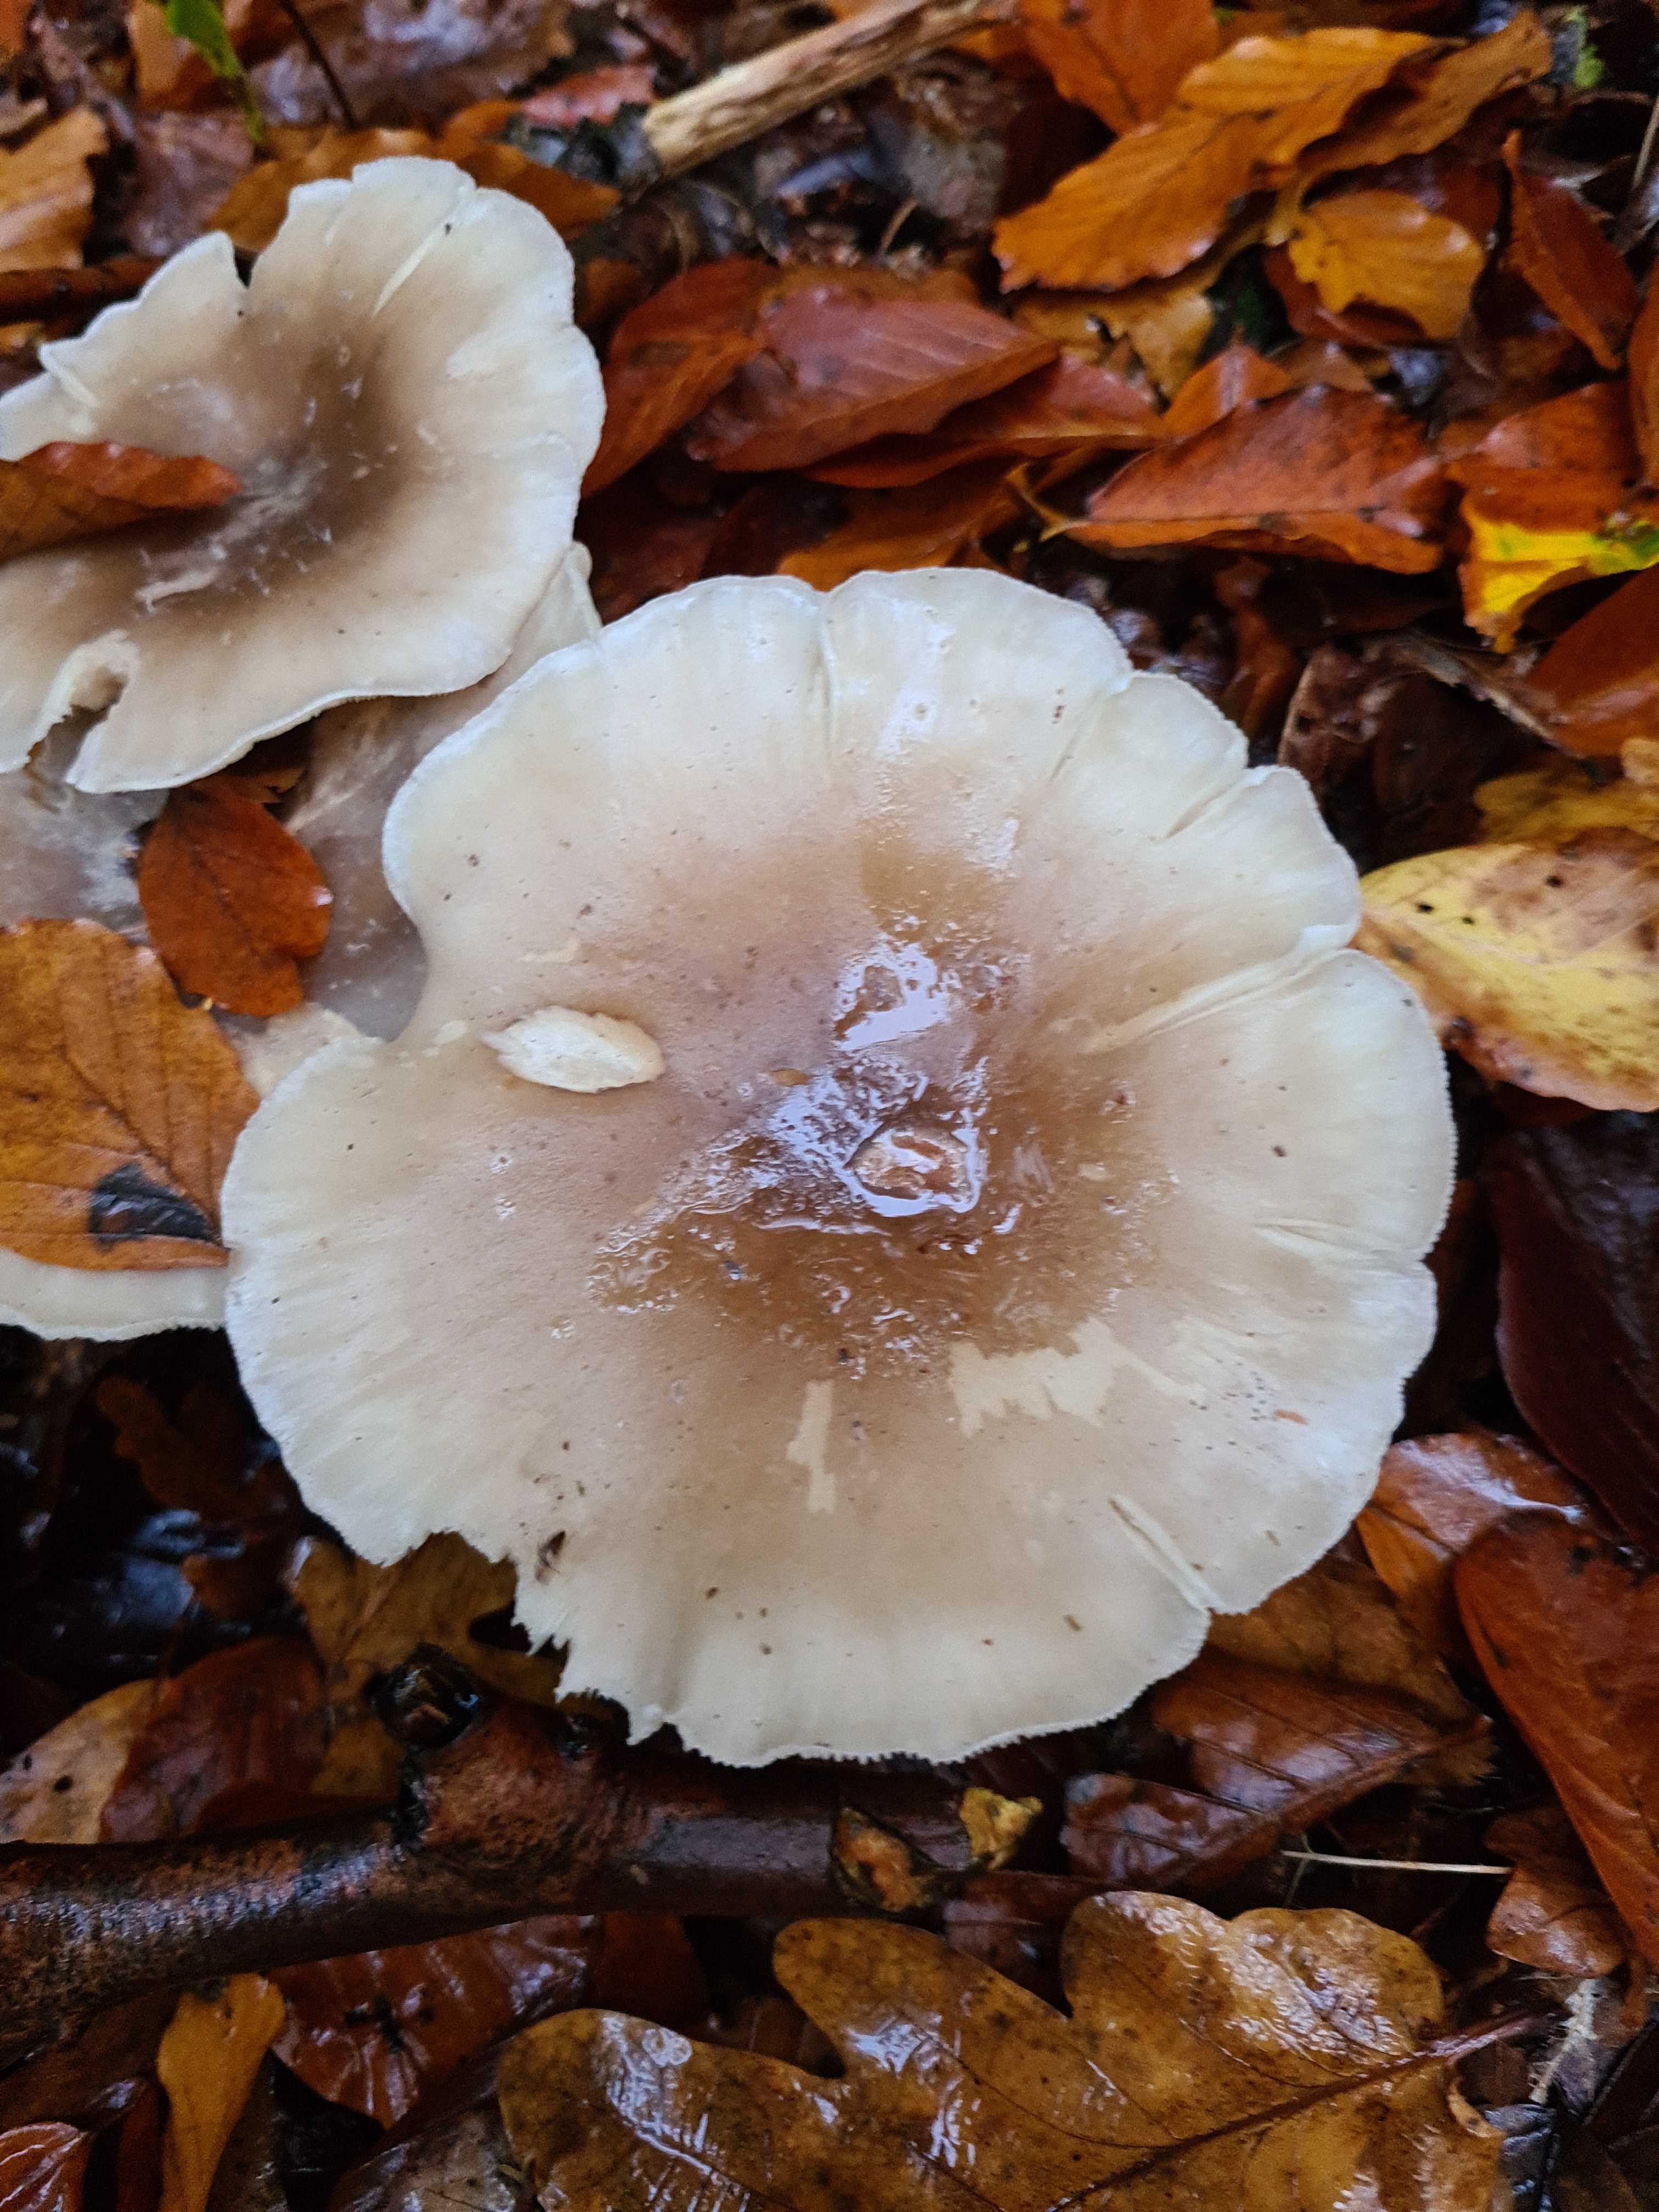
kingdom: Fungi
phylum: Basidiomycota
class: Agaricomycetes
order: Agaricales
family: Tricholomataceae
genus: Clitocybe
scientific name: Clitocybe nebularis
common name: tåge-tragthat
